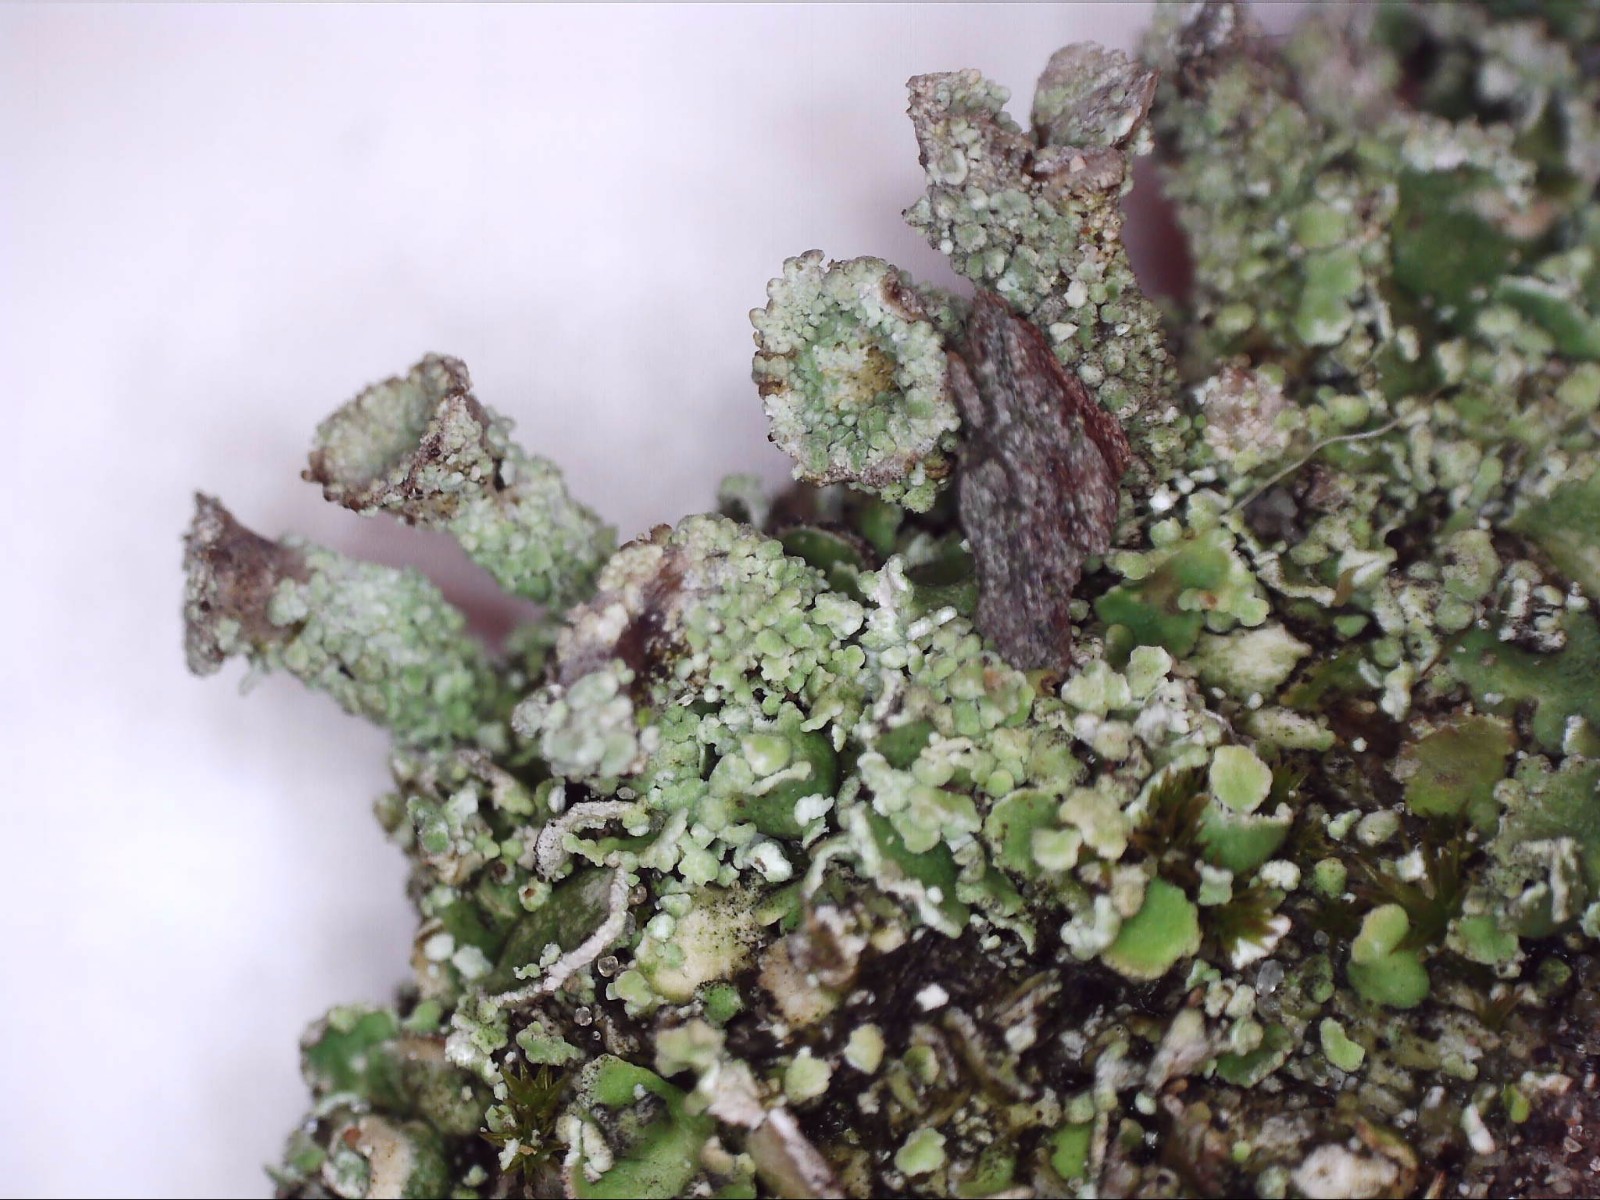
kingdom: Fungi
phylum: Ascomycota
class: Lecanoromycetes
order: Lecanorales
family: Cladoniaceae
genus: Cladonia
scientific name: Cladonia pyxidata
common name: tragt-bægerlav
